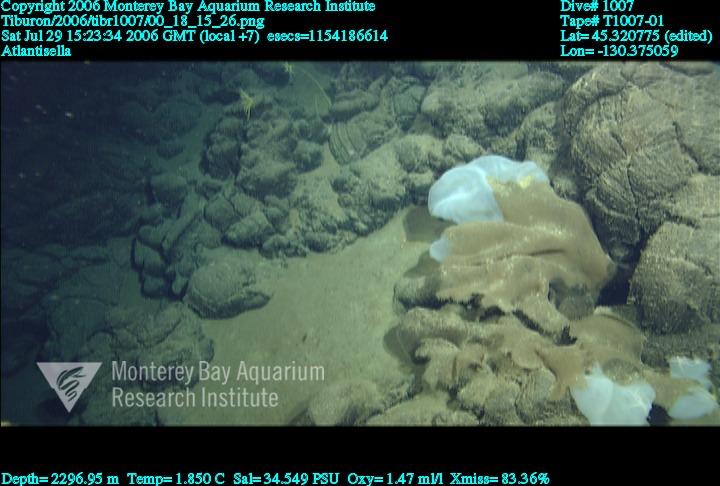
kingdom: Animalia
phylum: Porifera
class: Hexactinellida
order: Lyssacinosida
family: Euplectellidae
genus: Atlantisella
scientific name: Atlantisella
